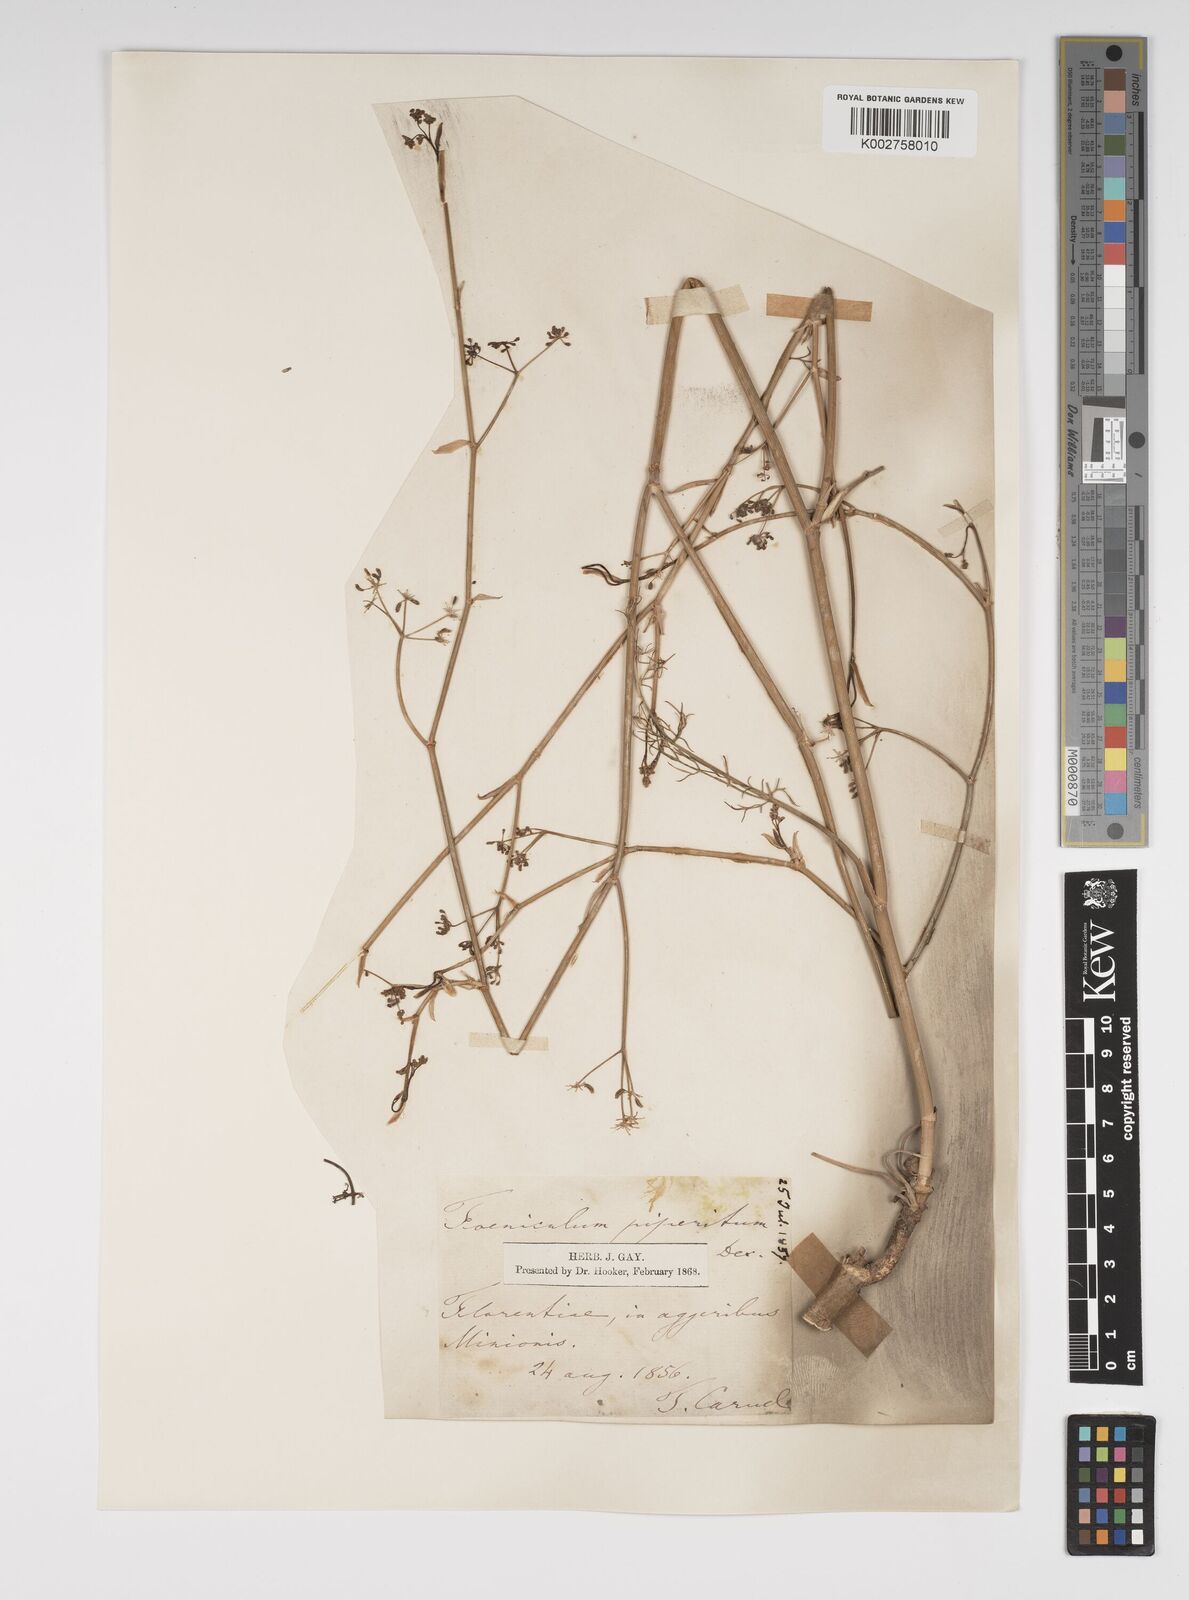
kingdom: Plantae
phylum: Tracheophyta
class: Magnoliopsida
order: Apiales
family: Apiaceae
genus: Foeniculum
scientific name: Foeniculum vulgare
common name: Fennel
